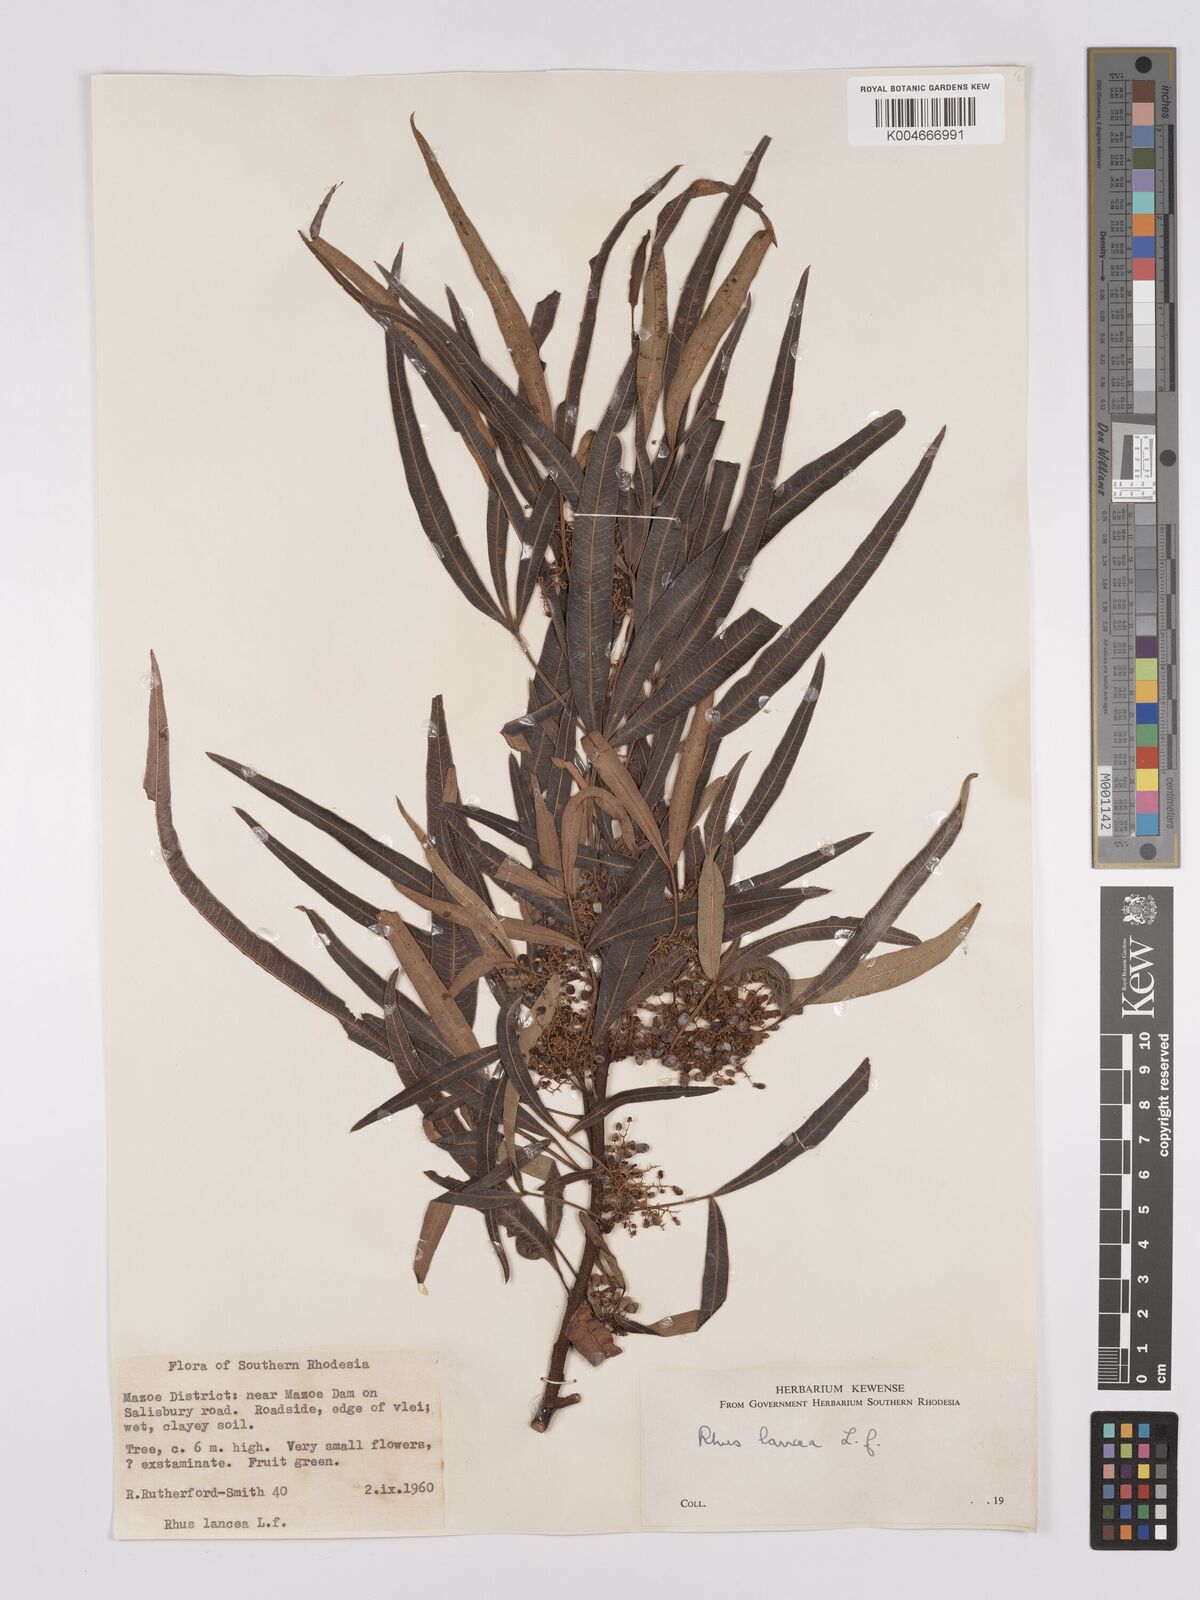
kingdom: Plantae
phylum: Tracheophyta
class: Magnoliopsida
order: Sapindales
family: Anacardiaceae
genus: Searsia
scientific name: Searsia lancea
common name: Cashew
